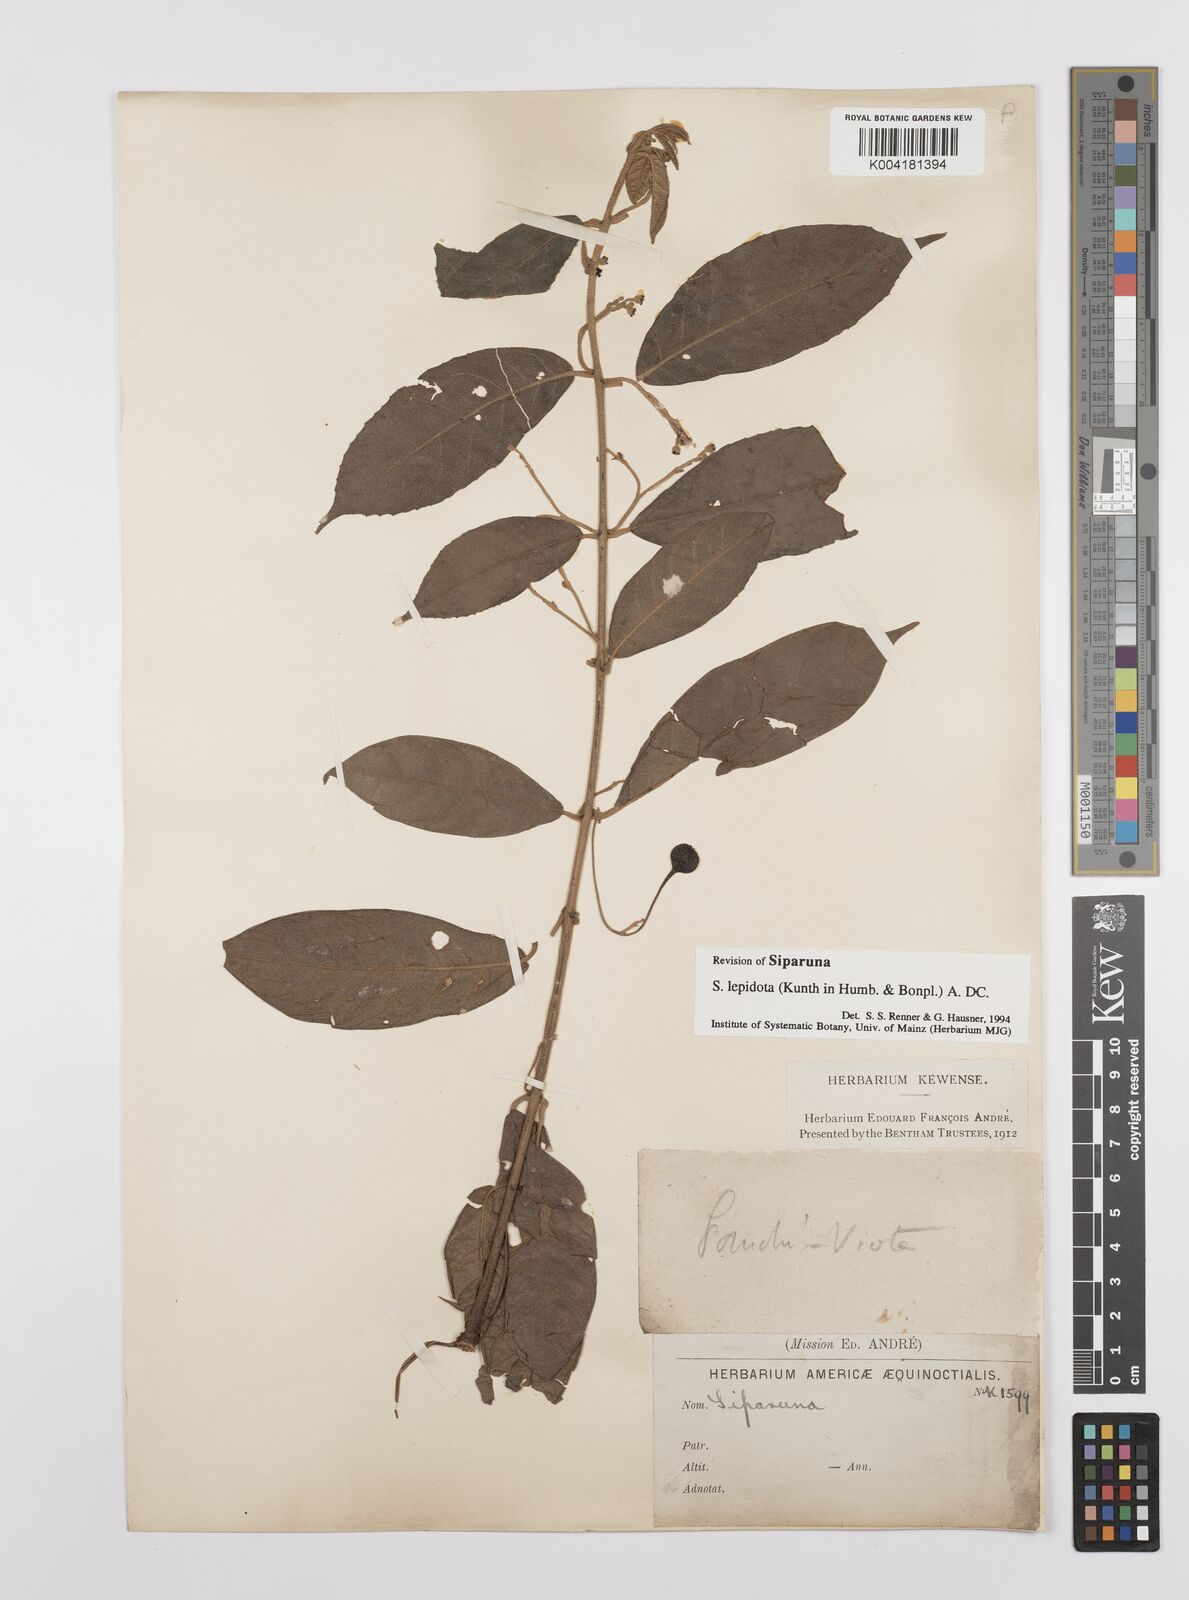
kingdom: Plantae
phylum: Tracheophyta
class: Magnoliopsida
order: Laurales
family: Siparunaceae
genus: Siparuna
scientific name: Siparuna lepidota
